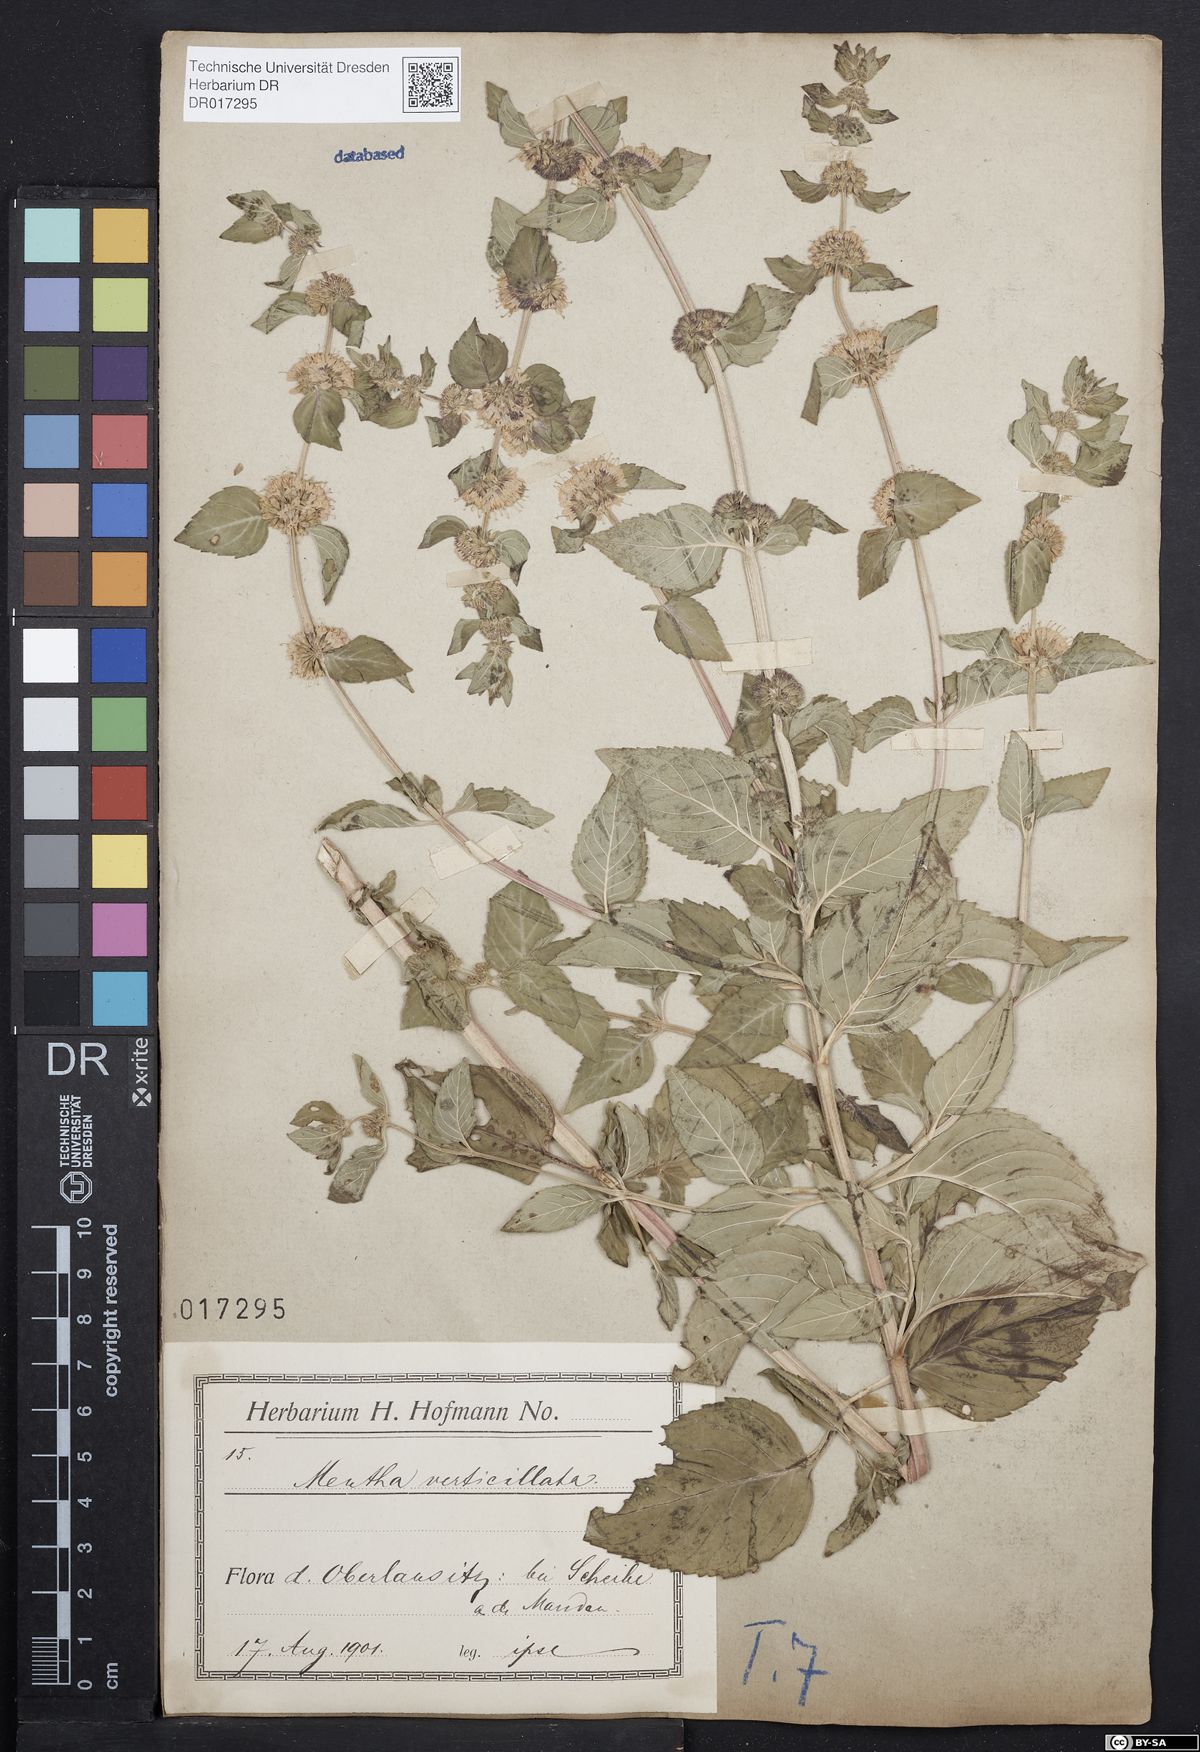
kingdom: Plantae
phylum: Tracheophyta
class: Magnoliopsida
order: Lamiales
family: Lamiaceae
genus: Mentha
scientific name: Mentha verticillata
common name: Mint
